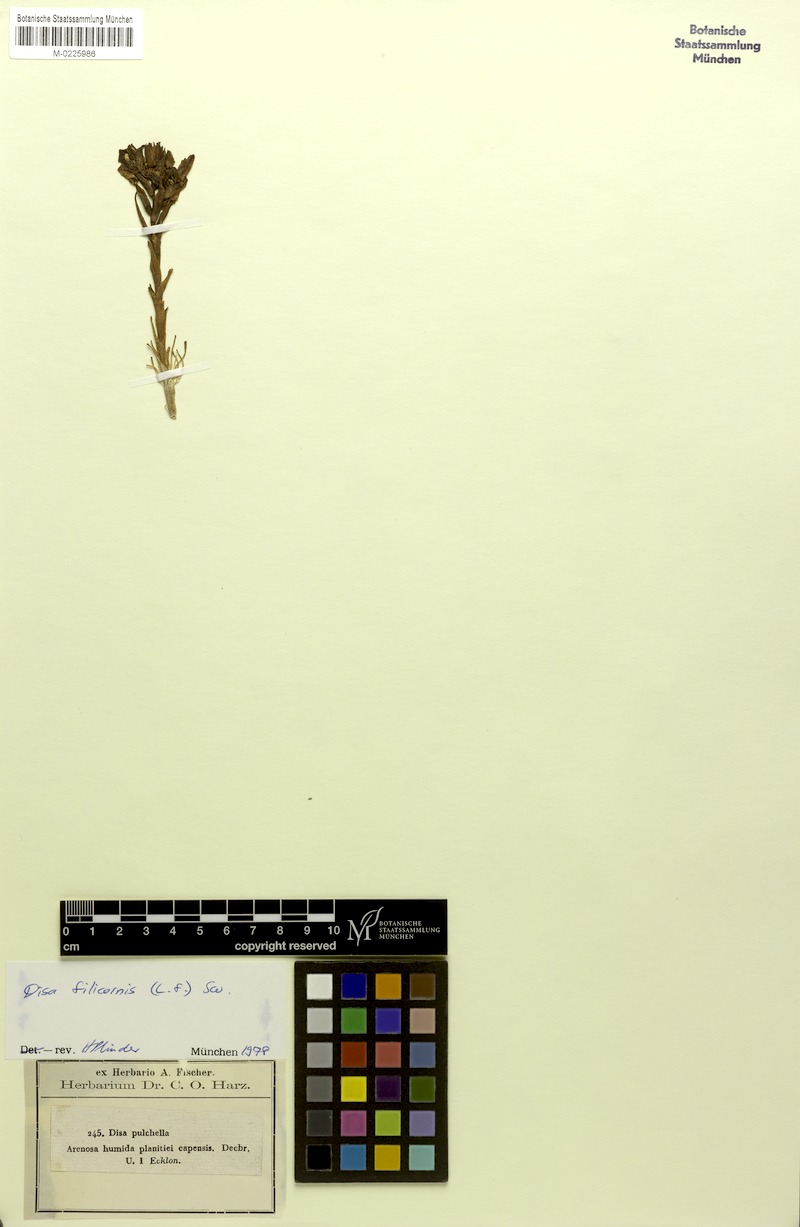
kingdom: Plantae
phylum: Tracheophyta
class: Liliopsida
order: Asparagales
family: Orchidaceae
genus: Disa
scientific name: Disa filicornis
